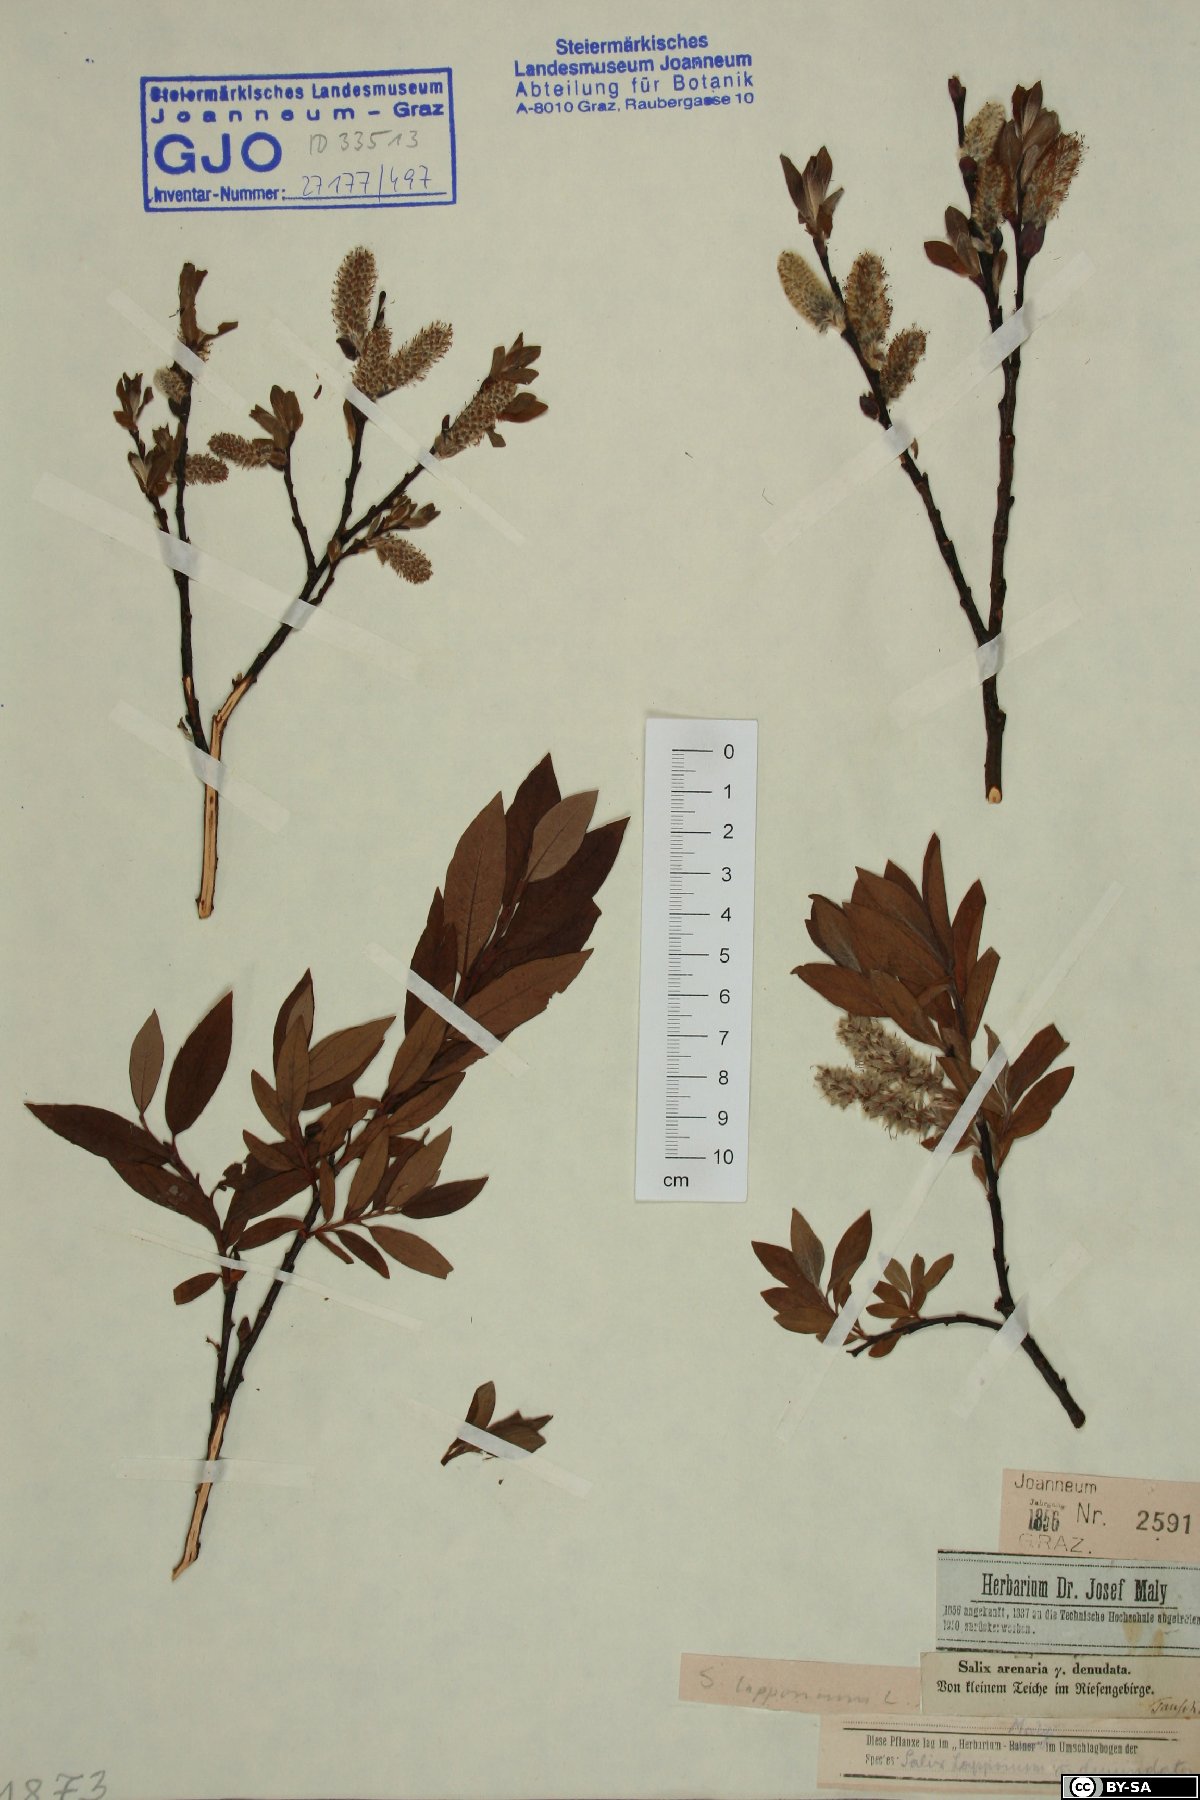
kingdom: Plantae
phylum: Tracheophyta
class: Magnoliopsida
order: Malpighiales
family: Salicaceae
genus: Salix
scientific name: Salix lapponum
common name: Downy willow
